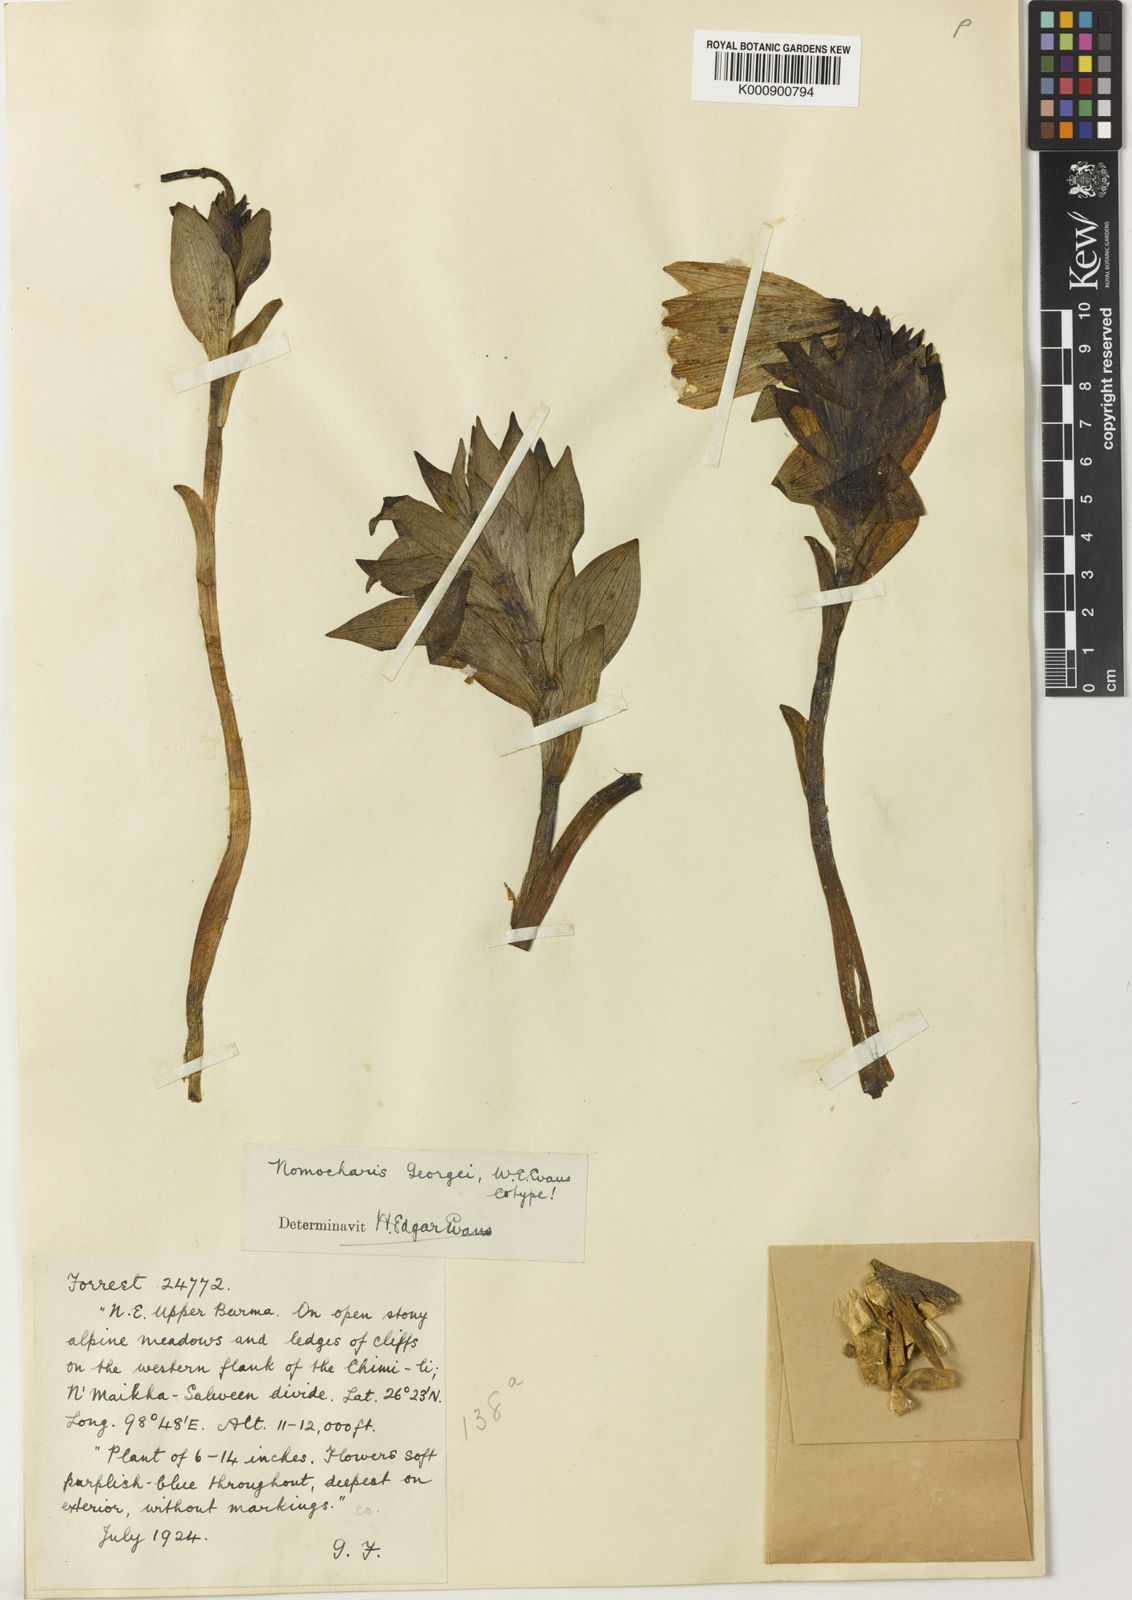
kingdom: Plantae
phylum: Tracheophyta
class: Liliopsida
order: Liliales
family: Liliaceae
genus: Lilium
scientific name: Lilium souliei
